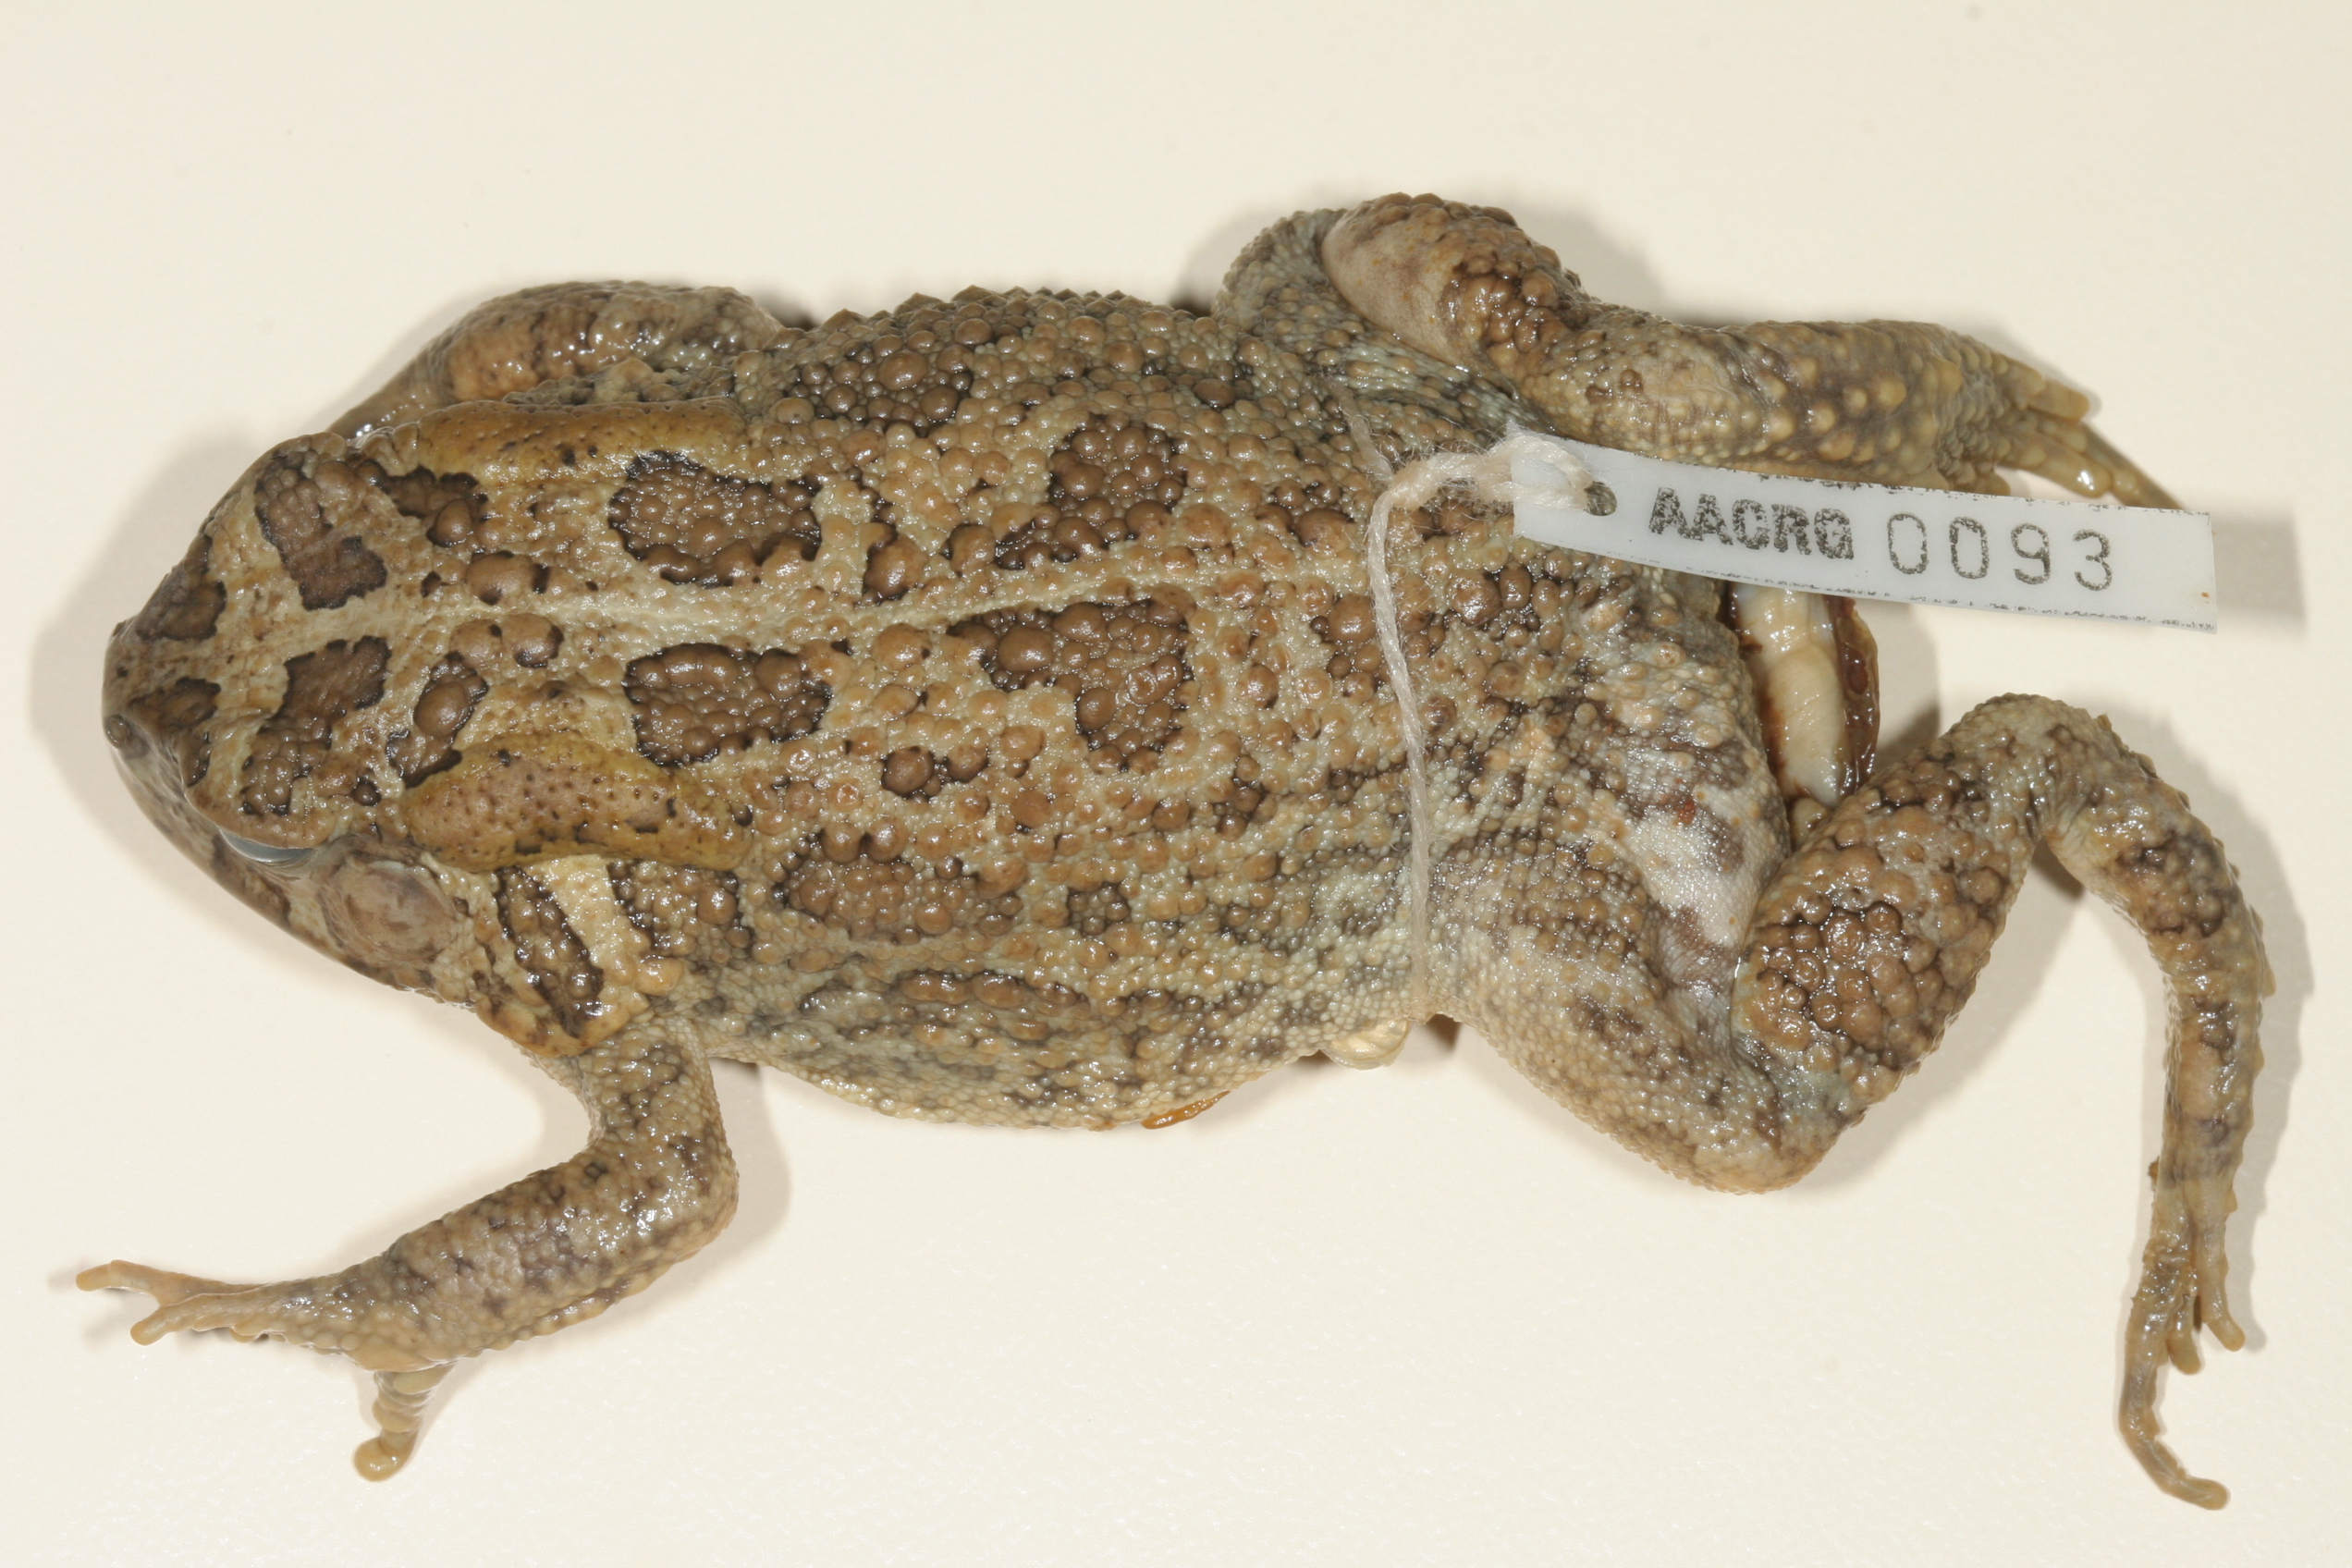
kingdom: Animalia
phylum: Chordata
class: Amphibia
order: Anura
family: Bufonidae
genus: Sclerophrys
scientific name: Sclerophrys gutturalis
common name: African common toad
